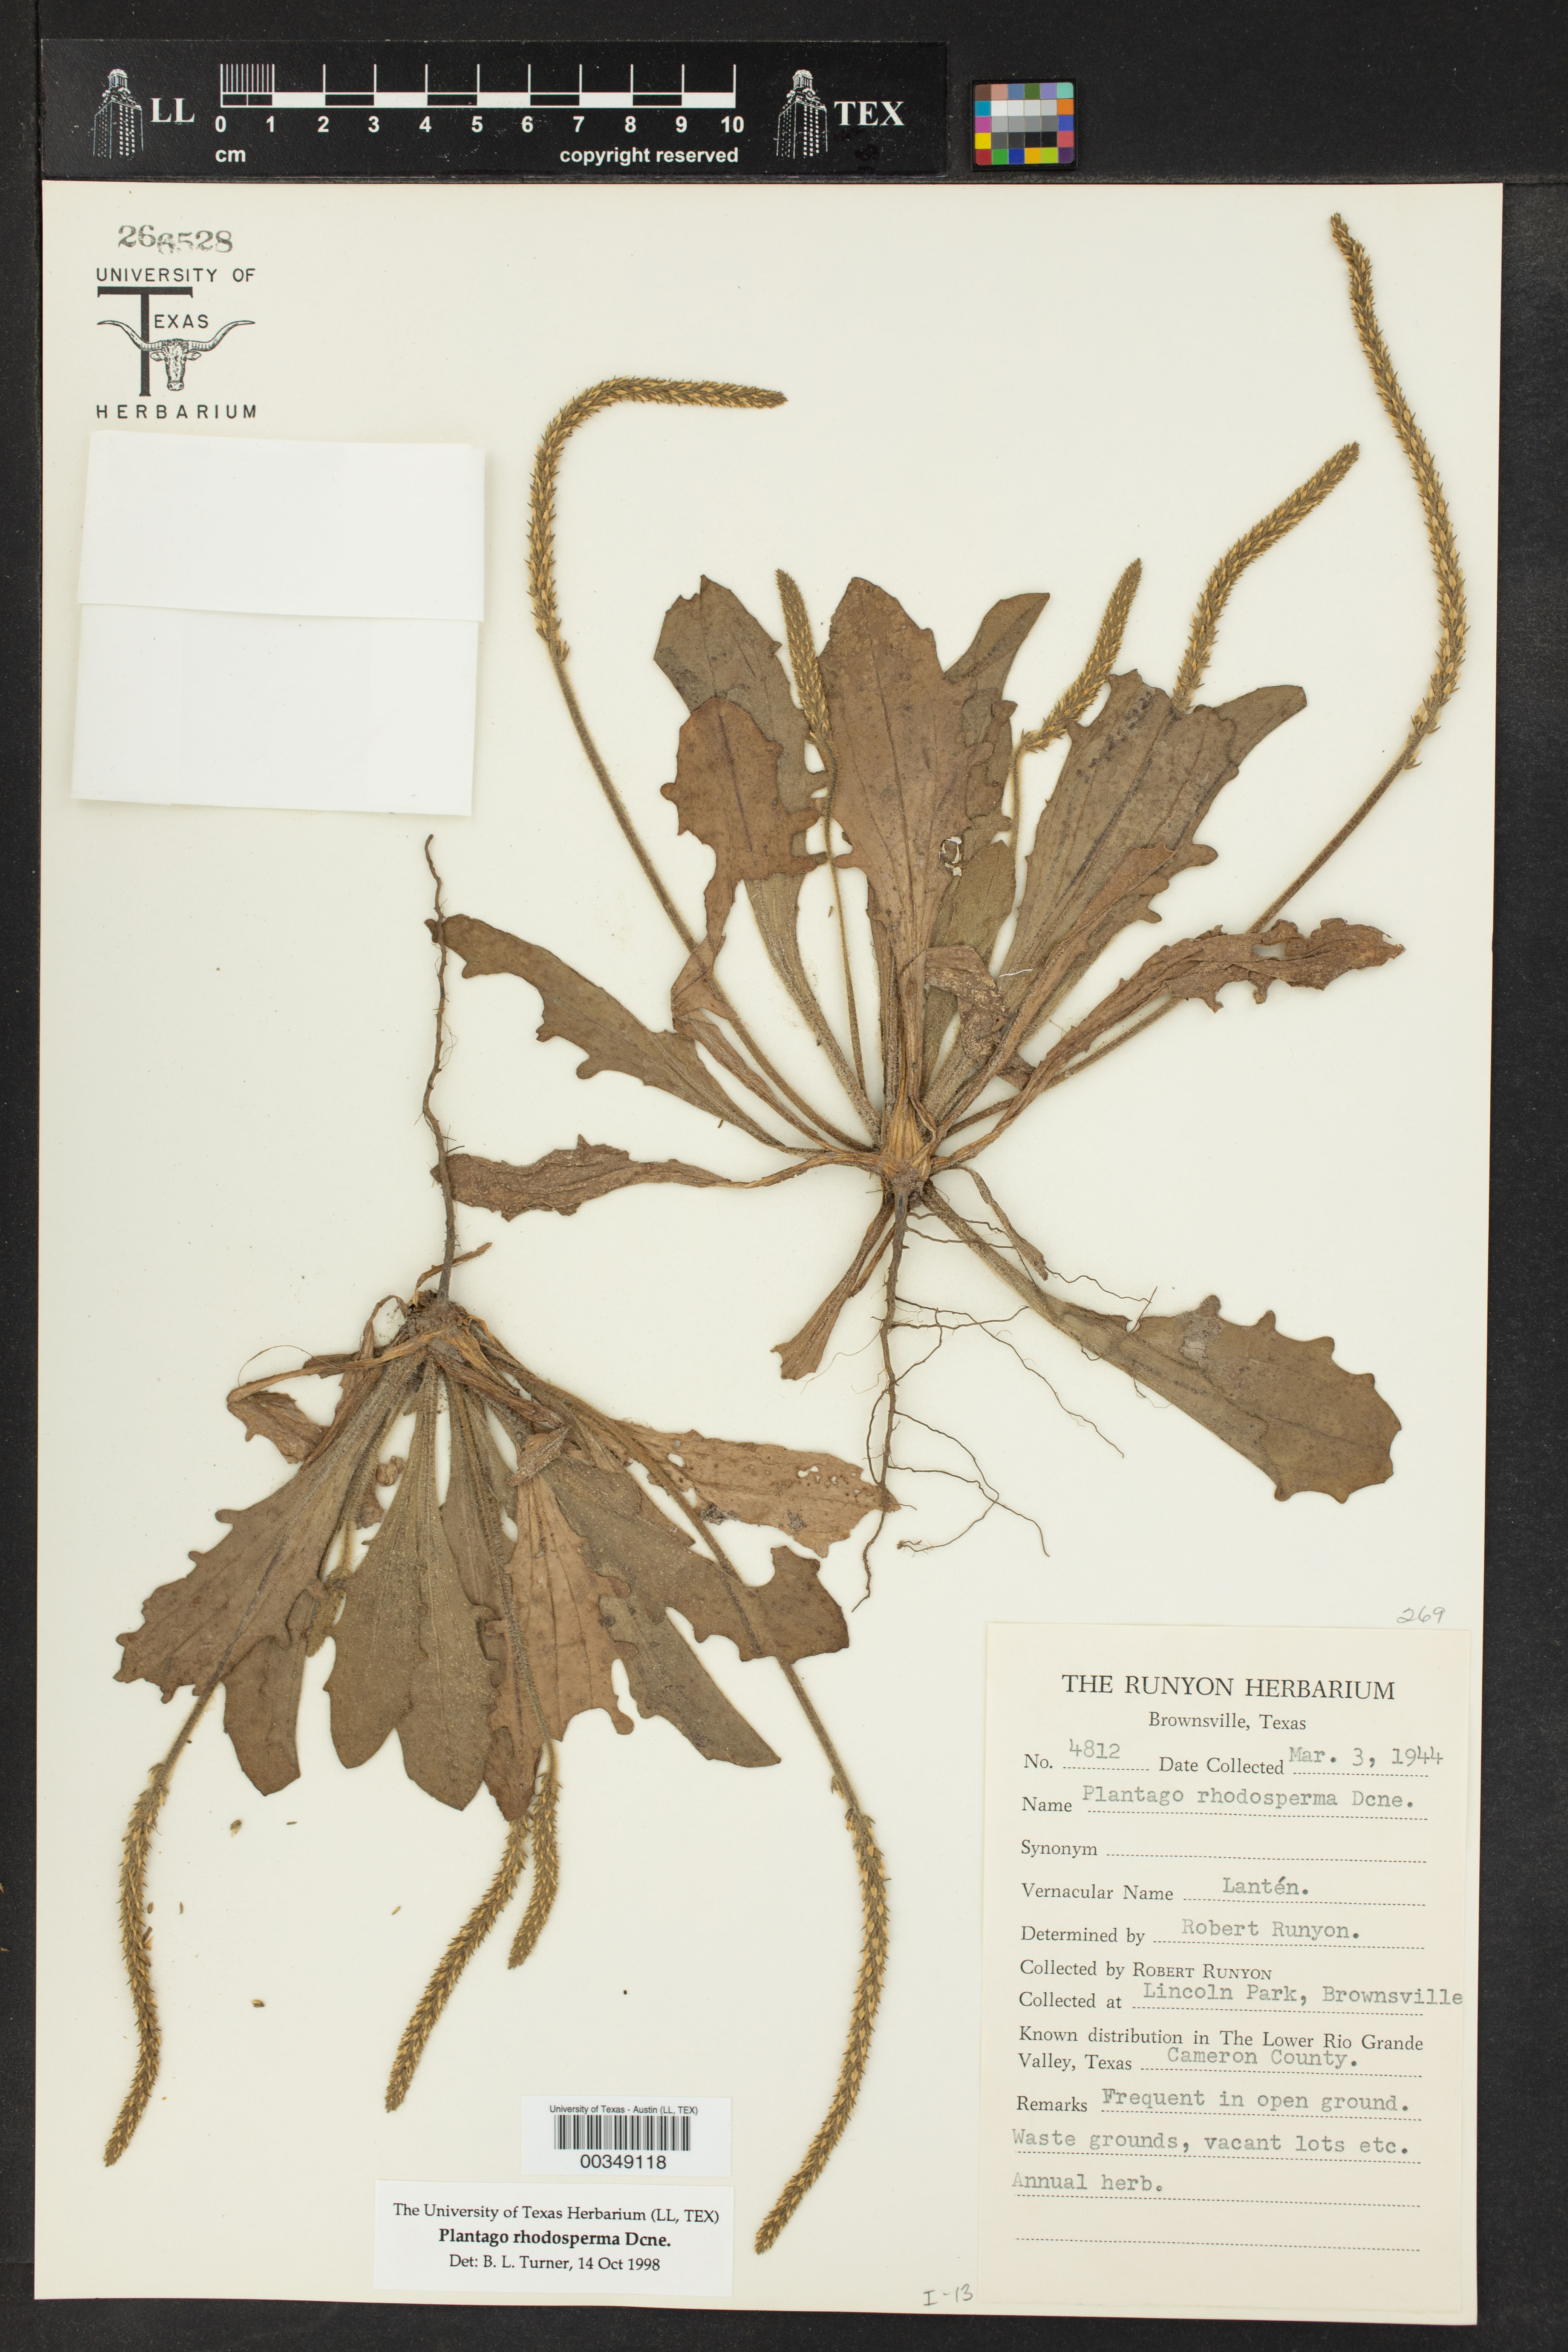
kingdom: Plantae
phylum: Tracheophyta
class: Magnoliopsida
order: Lamiales
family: Plantaginaceae
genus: Plantago
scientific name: Plantago rhodosperma
